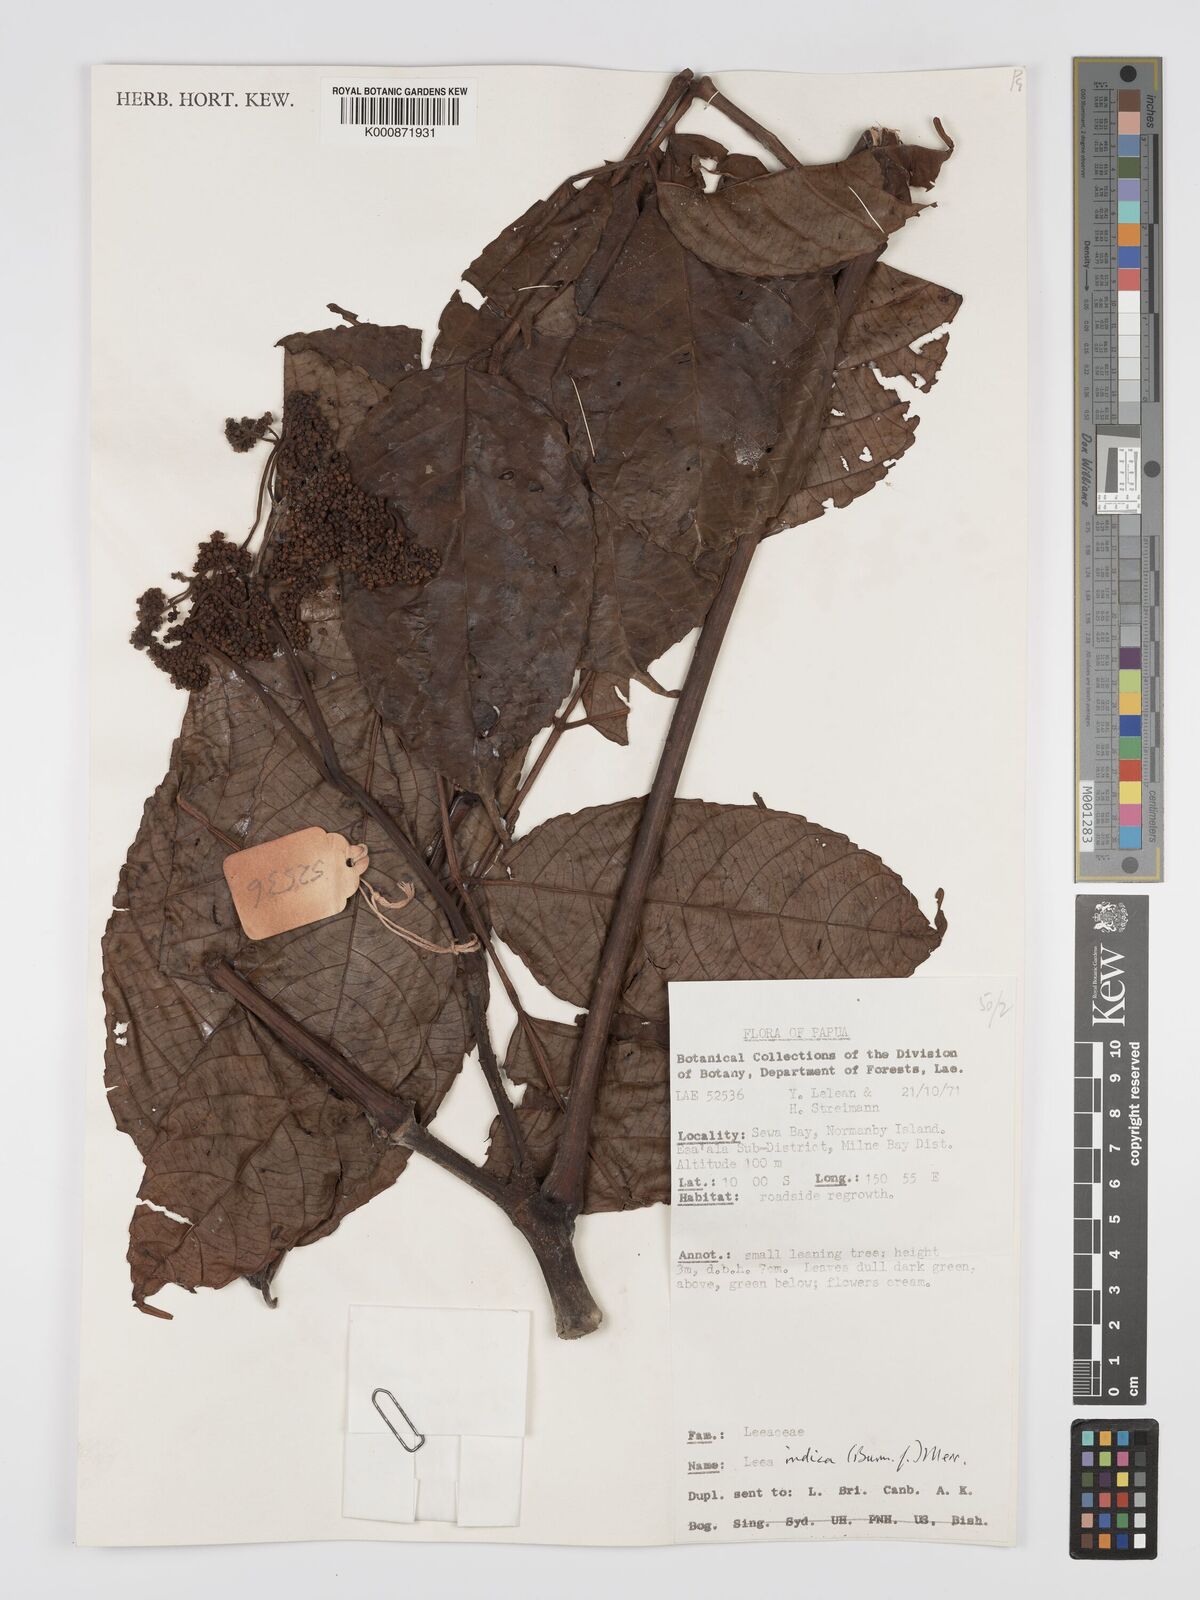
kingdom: Plantae
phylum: Tracheophyta
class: Magnoliopsida
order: Vitales
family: Vitaceae
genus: Leea
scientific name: Leea indica
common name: Bandicoot-berry
